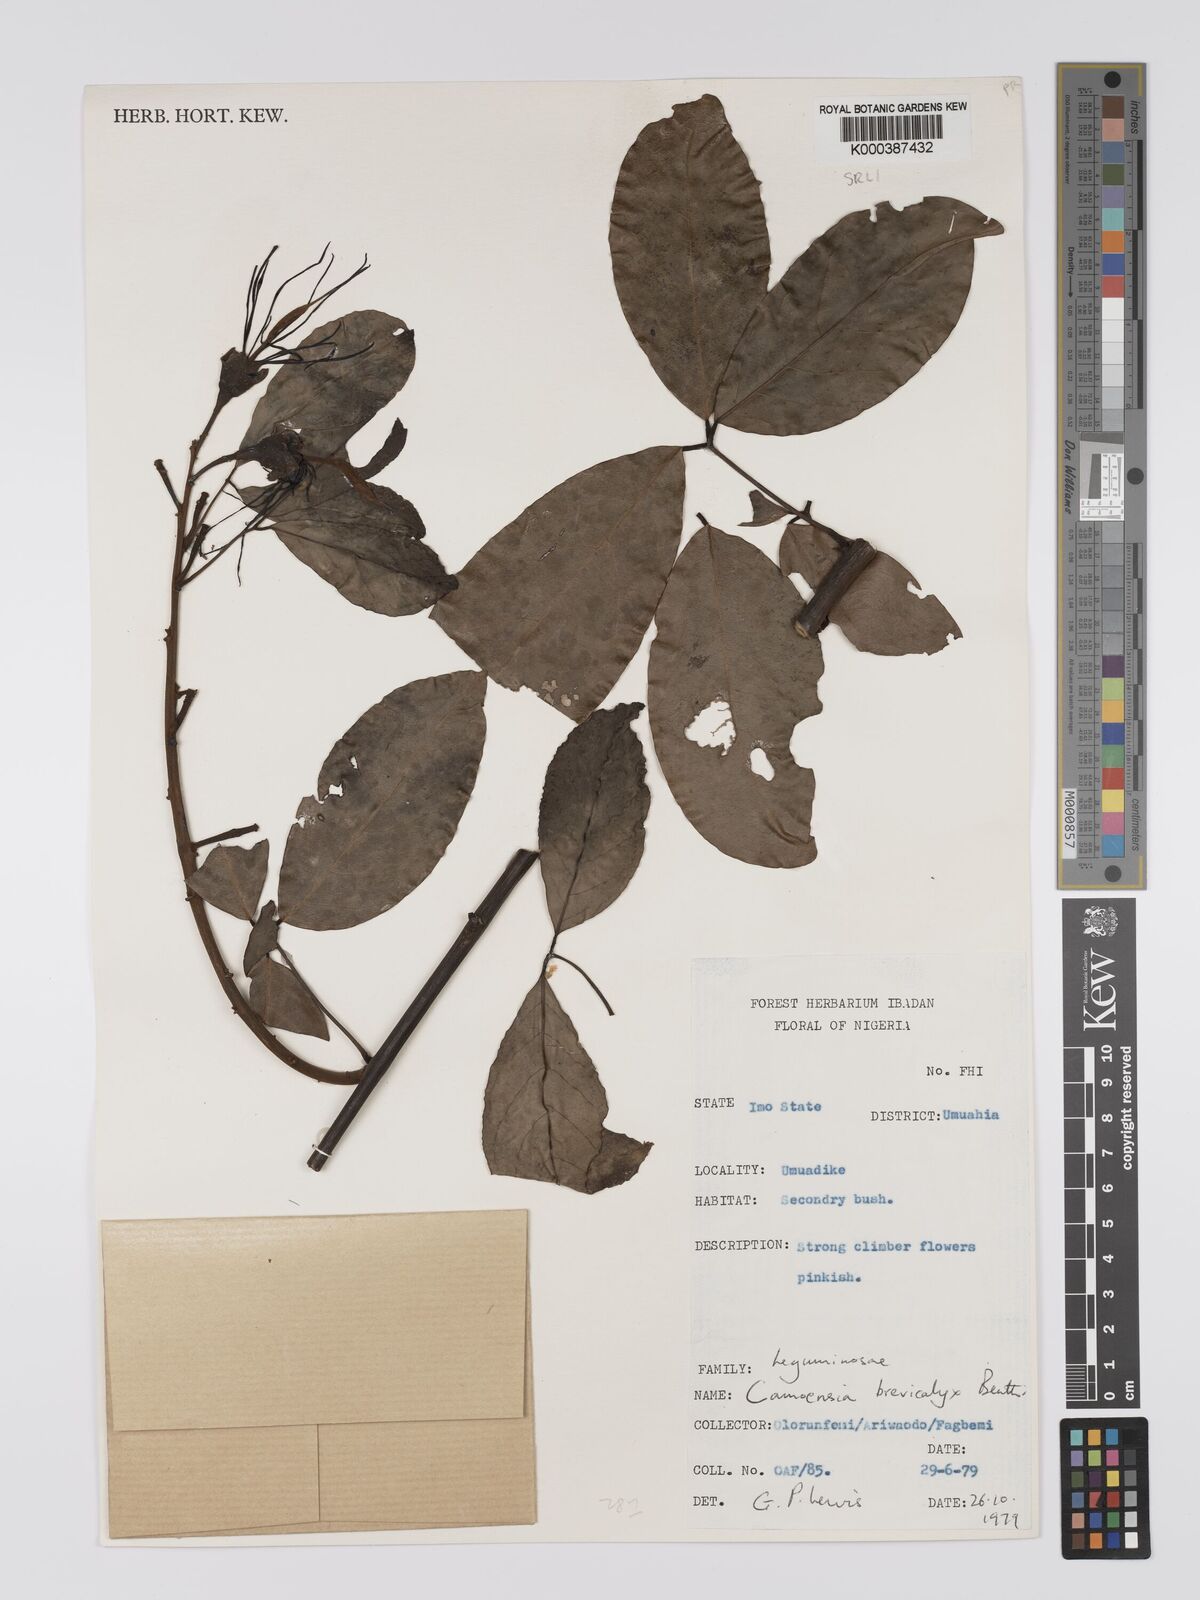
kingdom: Plantae
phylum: Tracheophyta
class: Magnoliopsida
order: Fabales
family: Fabaceae
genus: Camoensia
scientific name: Camoensia brevicalyx
